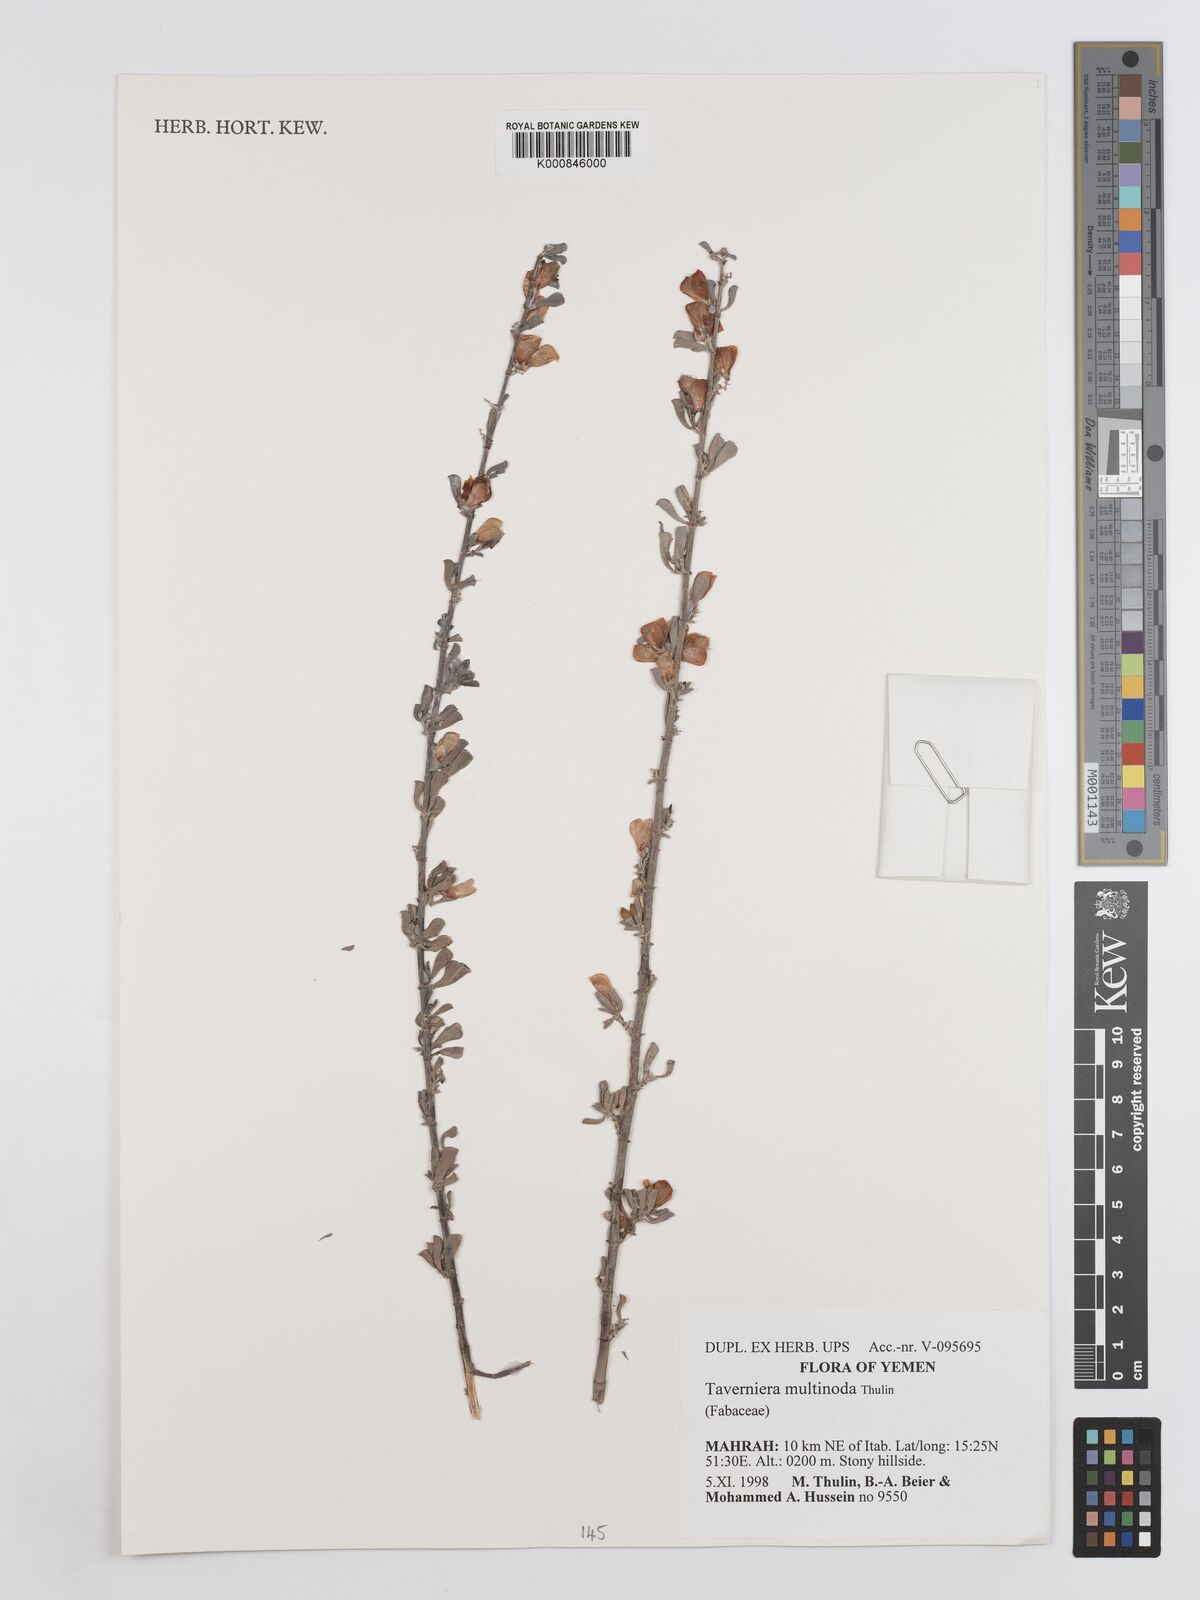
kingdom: Plantae
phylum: Tracheophyta
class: Magnoliopsida
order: Fabales
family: Fabaceae
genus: Taverniera
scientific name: Taverniera multinoda
